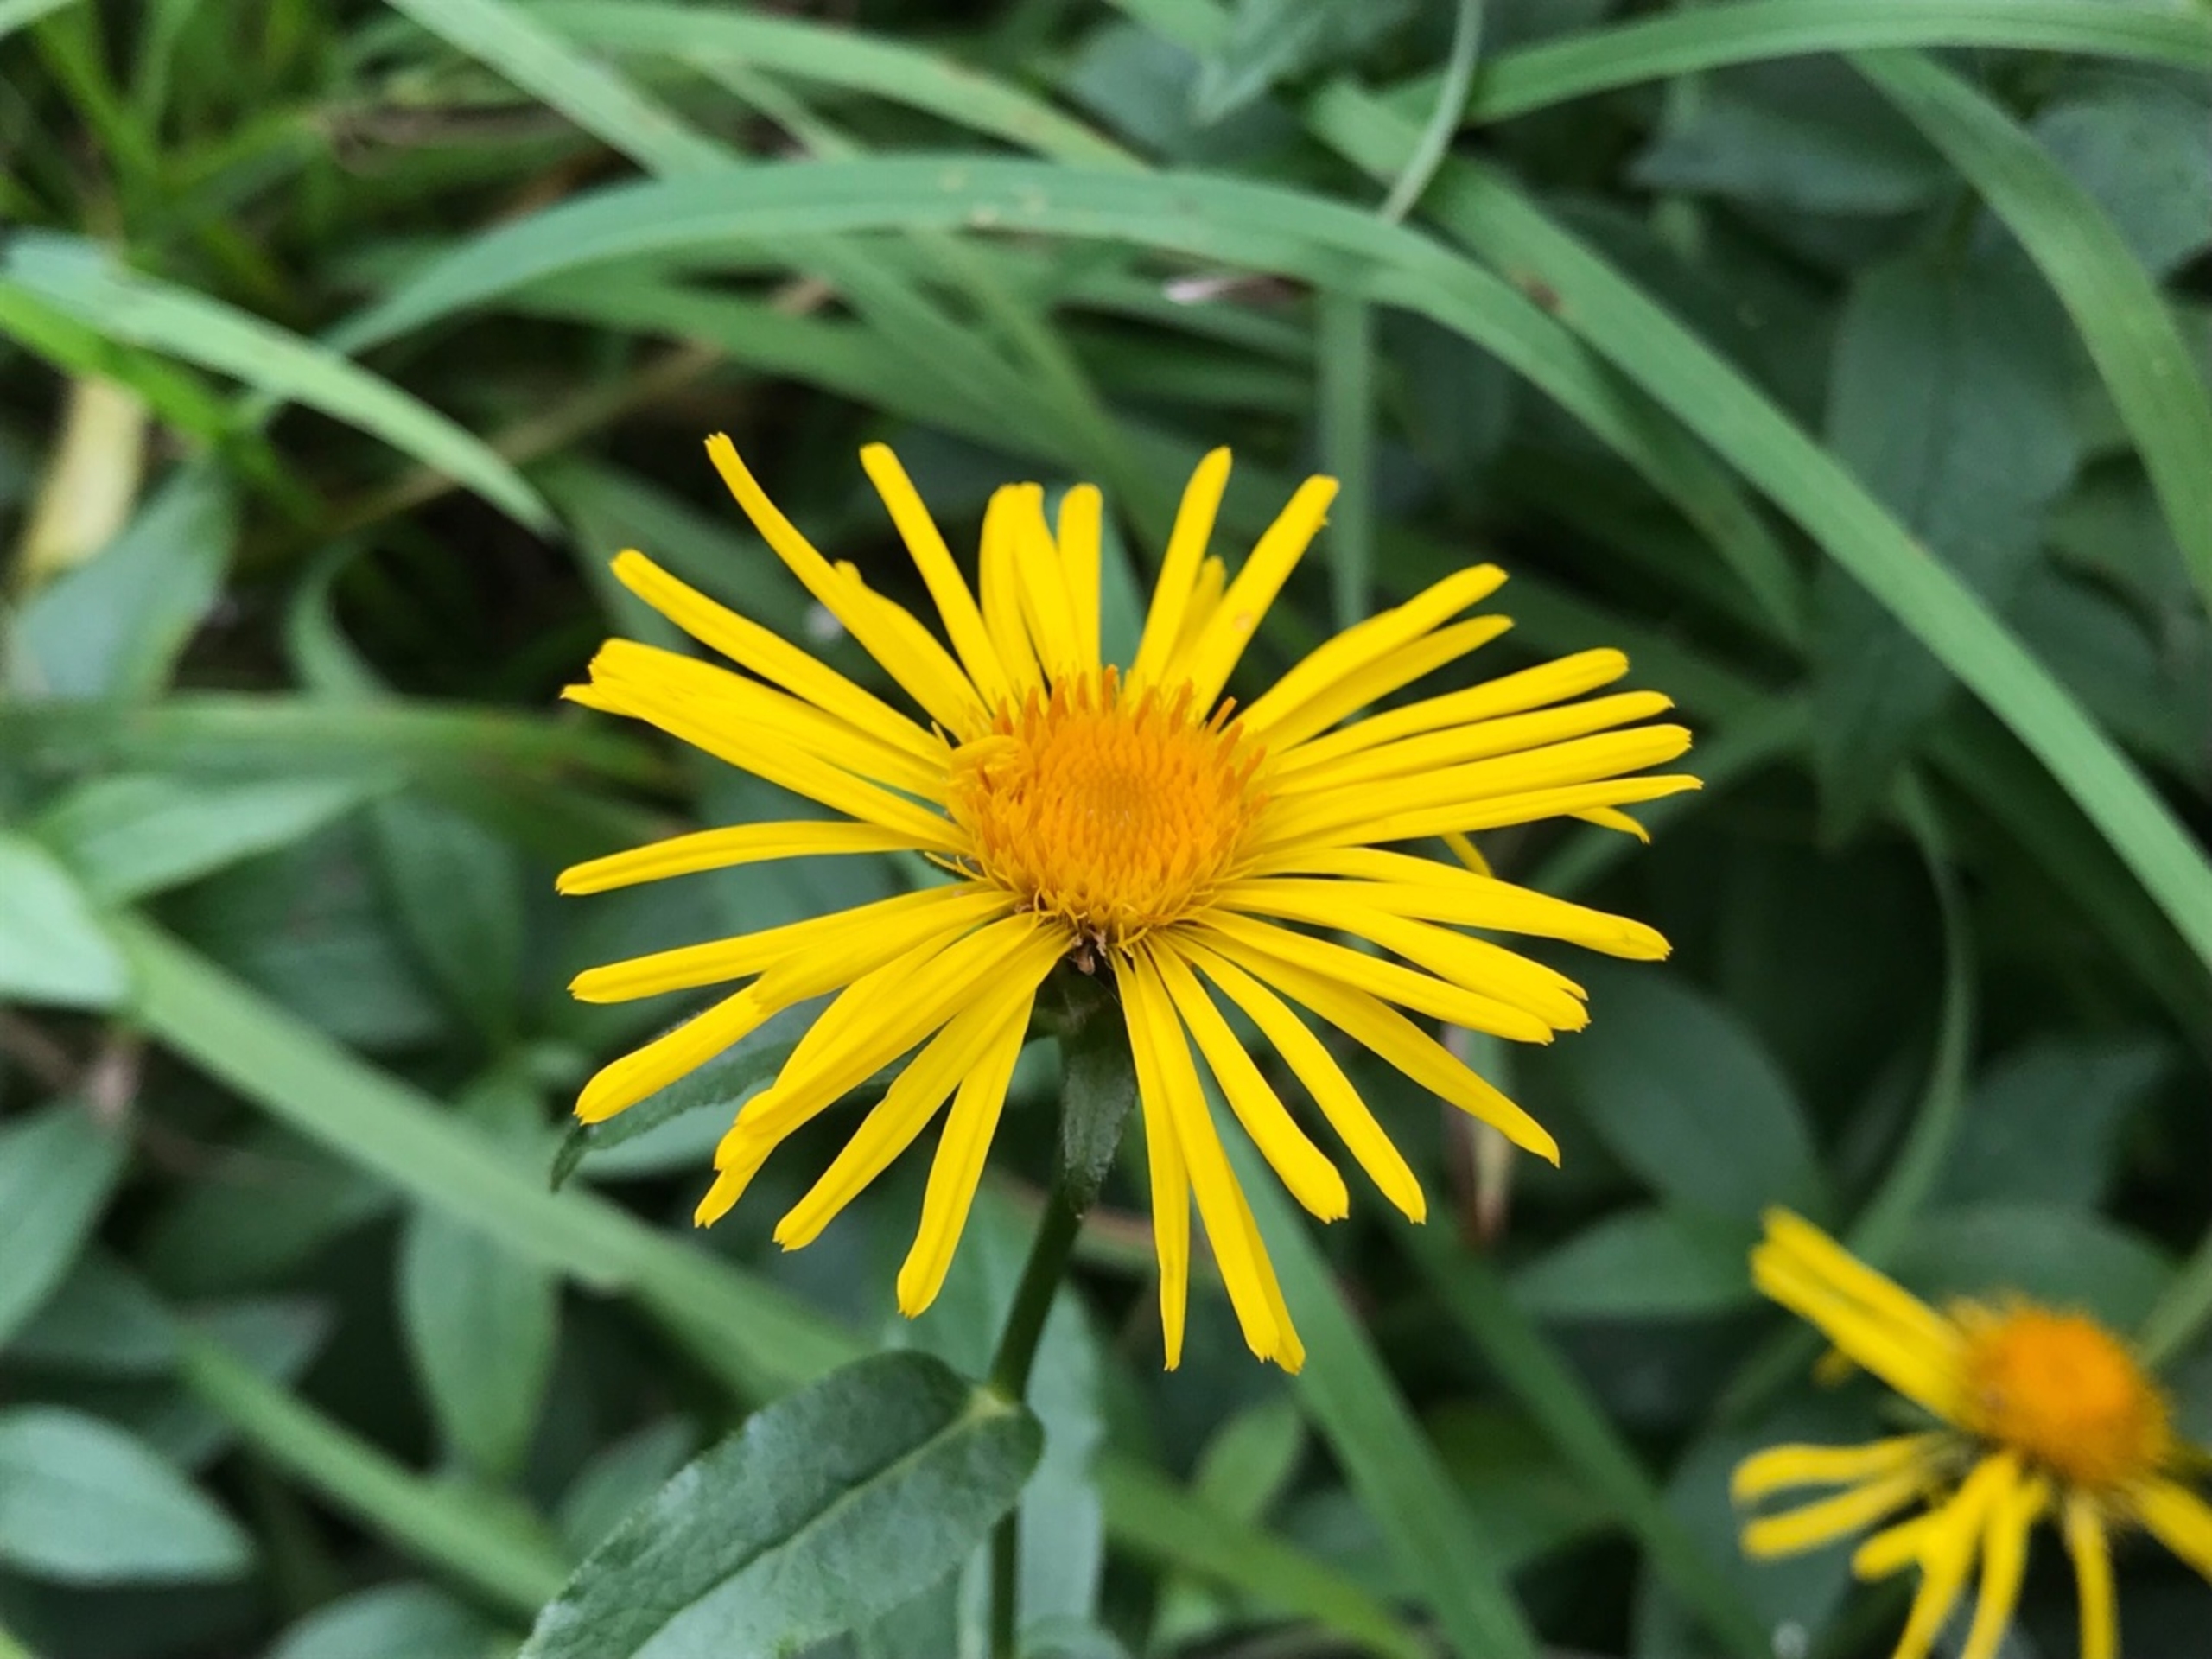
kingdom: Plantae
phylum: Tracheophyta
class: Magnoliopsida
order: Asterales
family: Asteraceae
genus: Pentanema
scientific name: Pentanema salicinum
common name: Pile-alant
